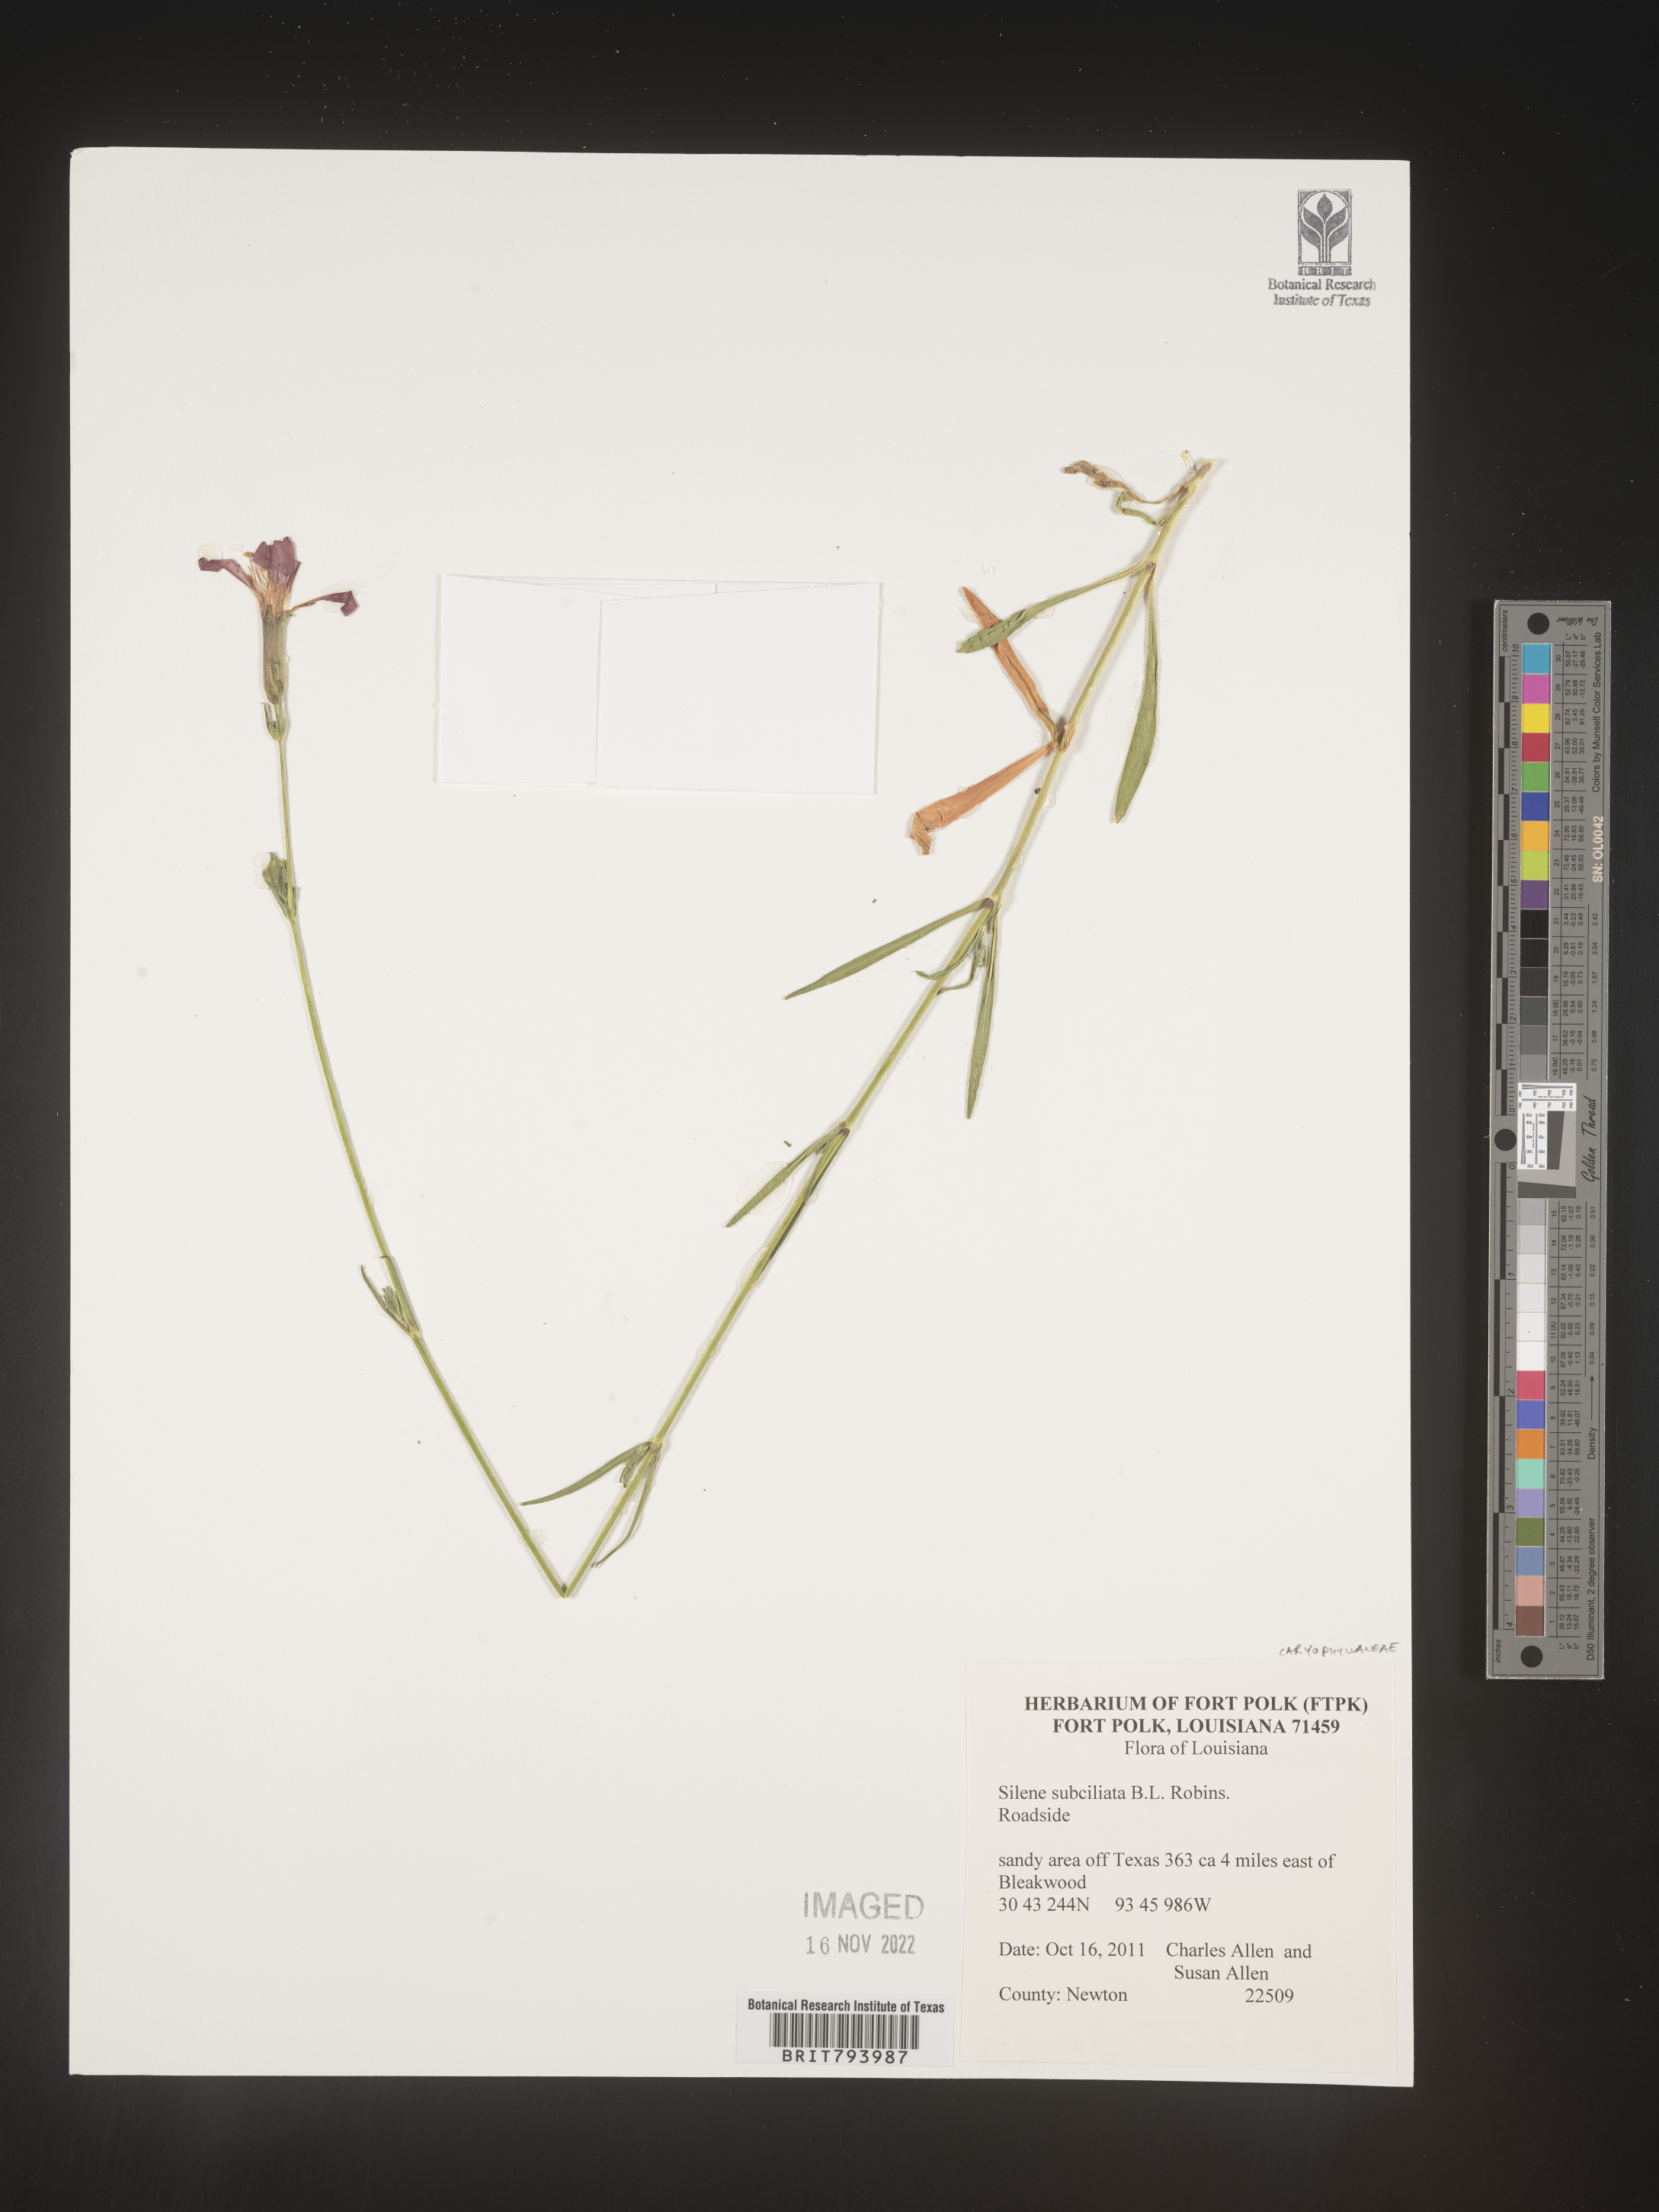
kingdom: Plantae
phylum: Tracheophyta
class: Magnoliopsida
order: Caryophyllales
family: Caryophyllaceae
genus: Silene
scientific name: Silene subciliata
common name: Prairie fire-pink
